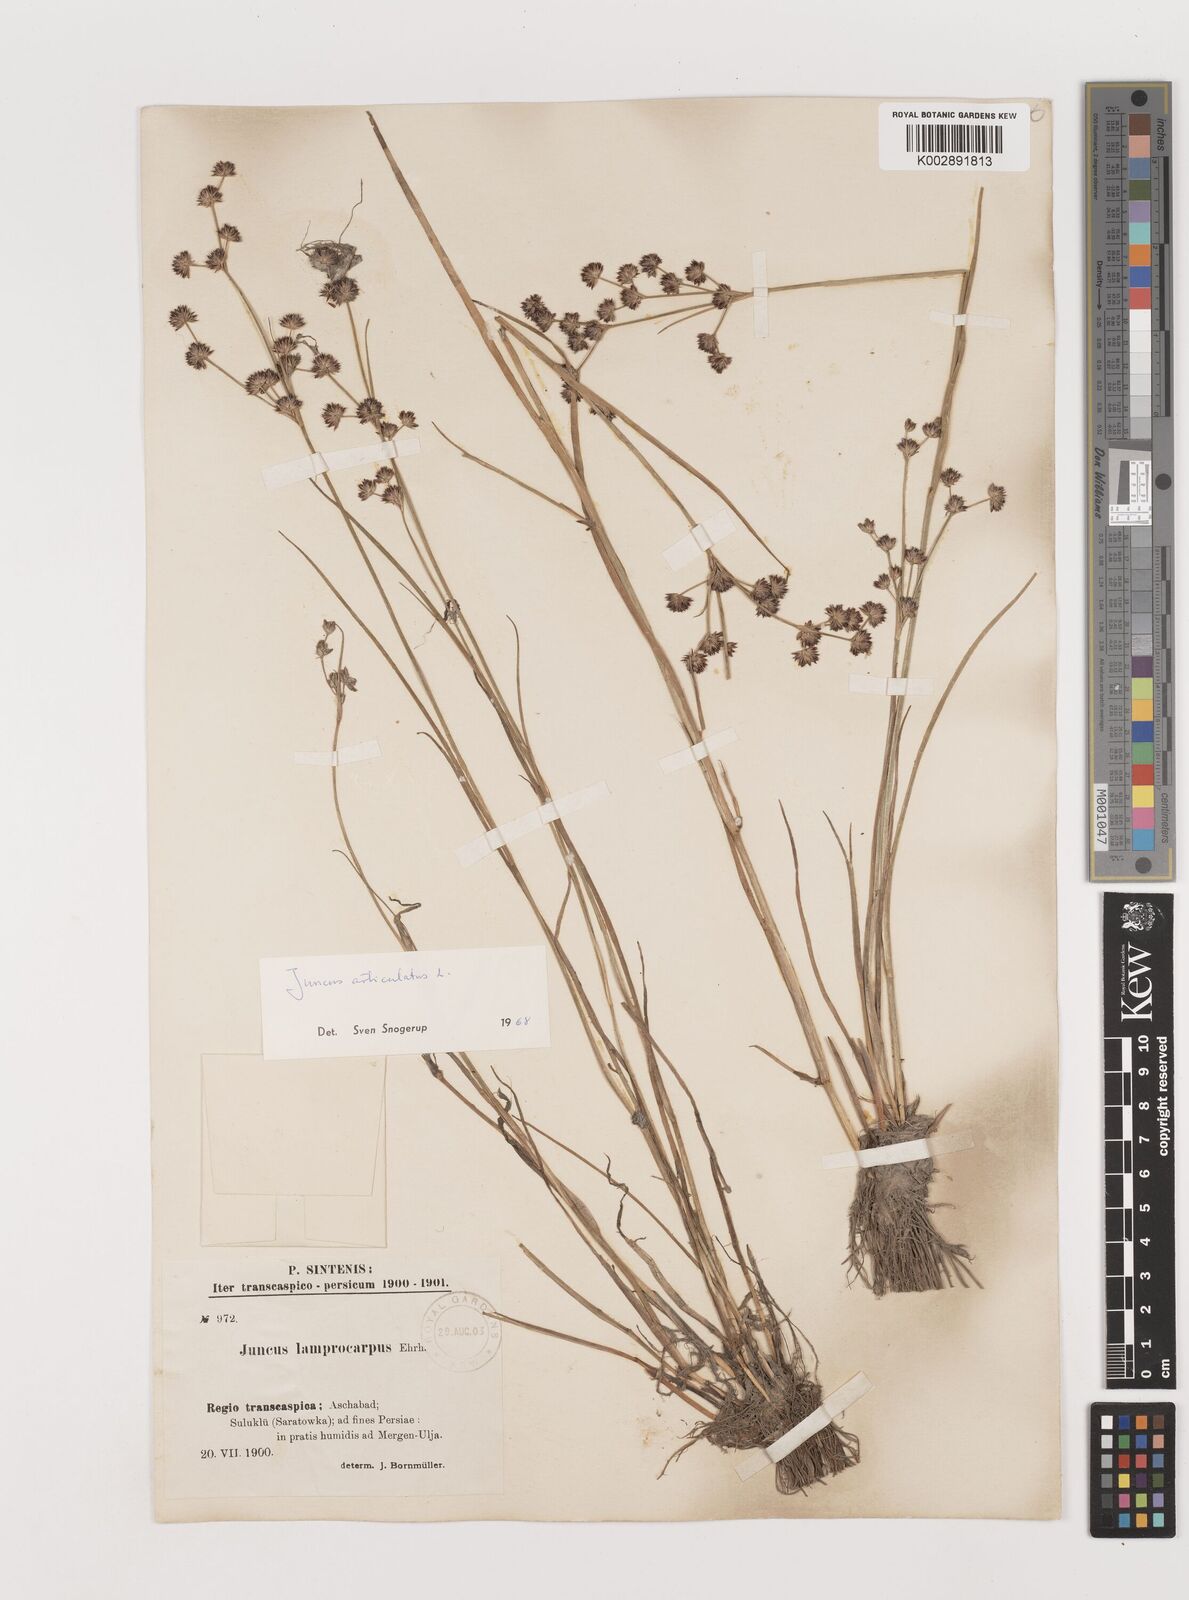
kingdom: Plantae
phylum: Tracheophyta
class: Liliopsida
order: Poales
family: Juncaceae
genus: Juncus
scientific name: Juncus articulatus
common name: Jointed rush
